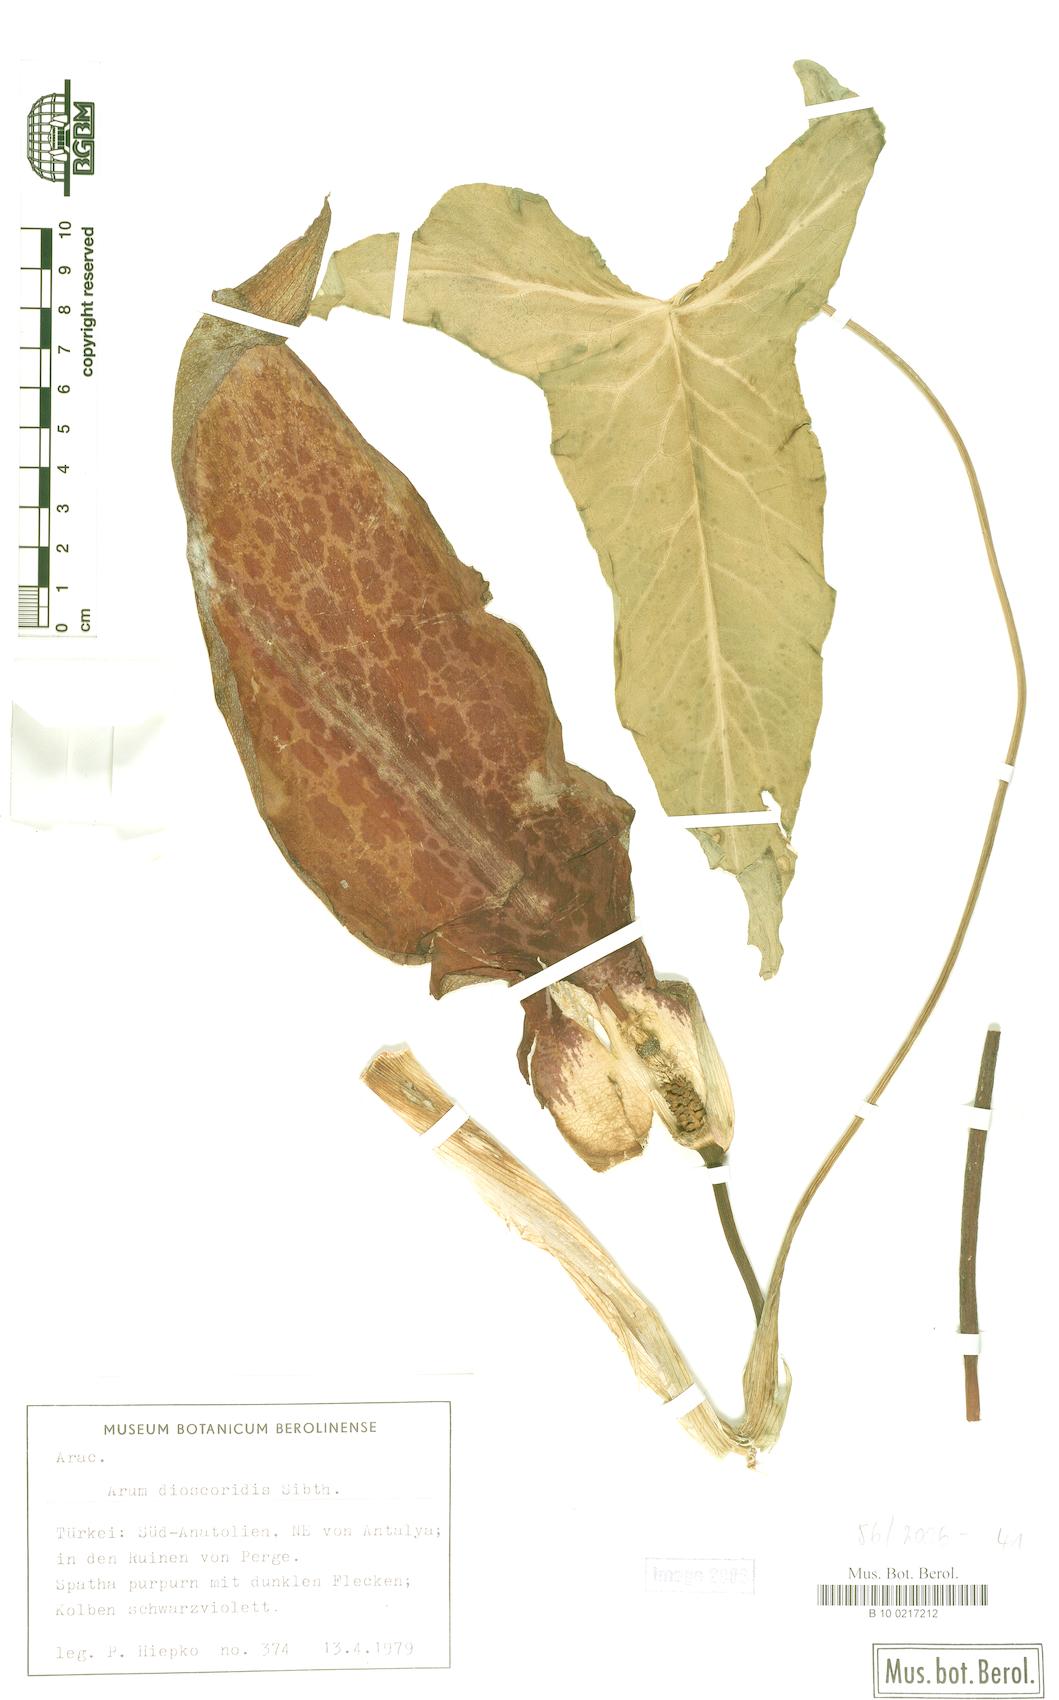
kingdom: Plantae
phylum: Tracheophyta
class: Liliopsida
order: Alismatales
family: Araceae
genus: Arum
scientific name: Arum dioscoridis
